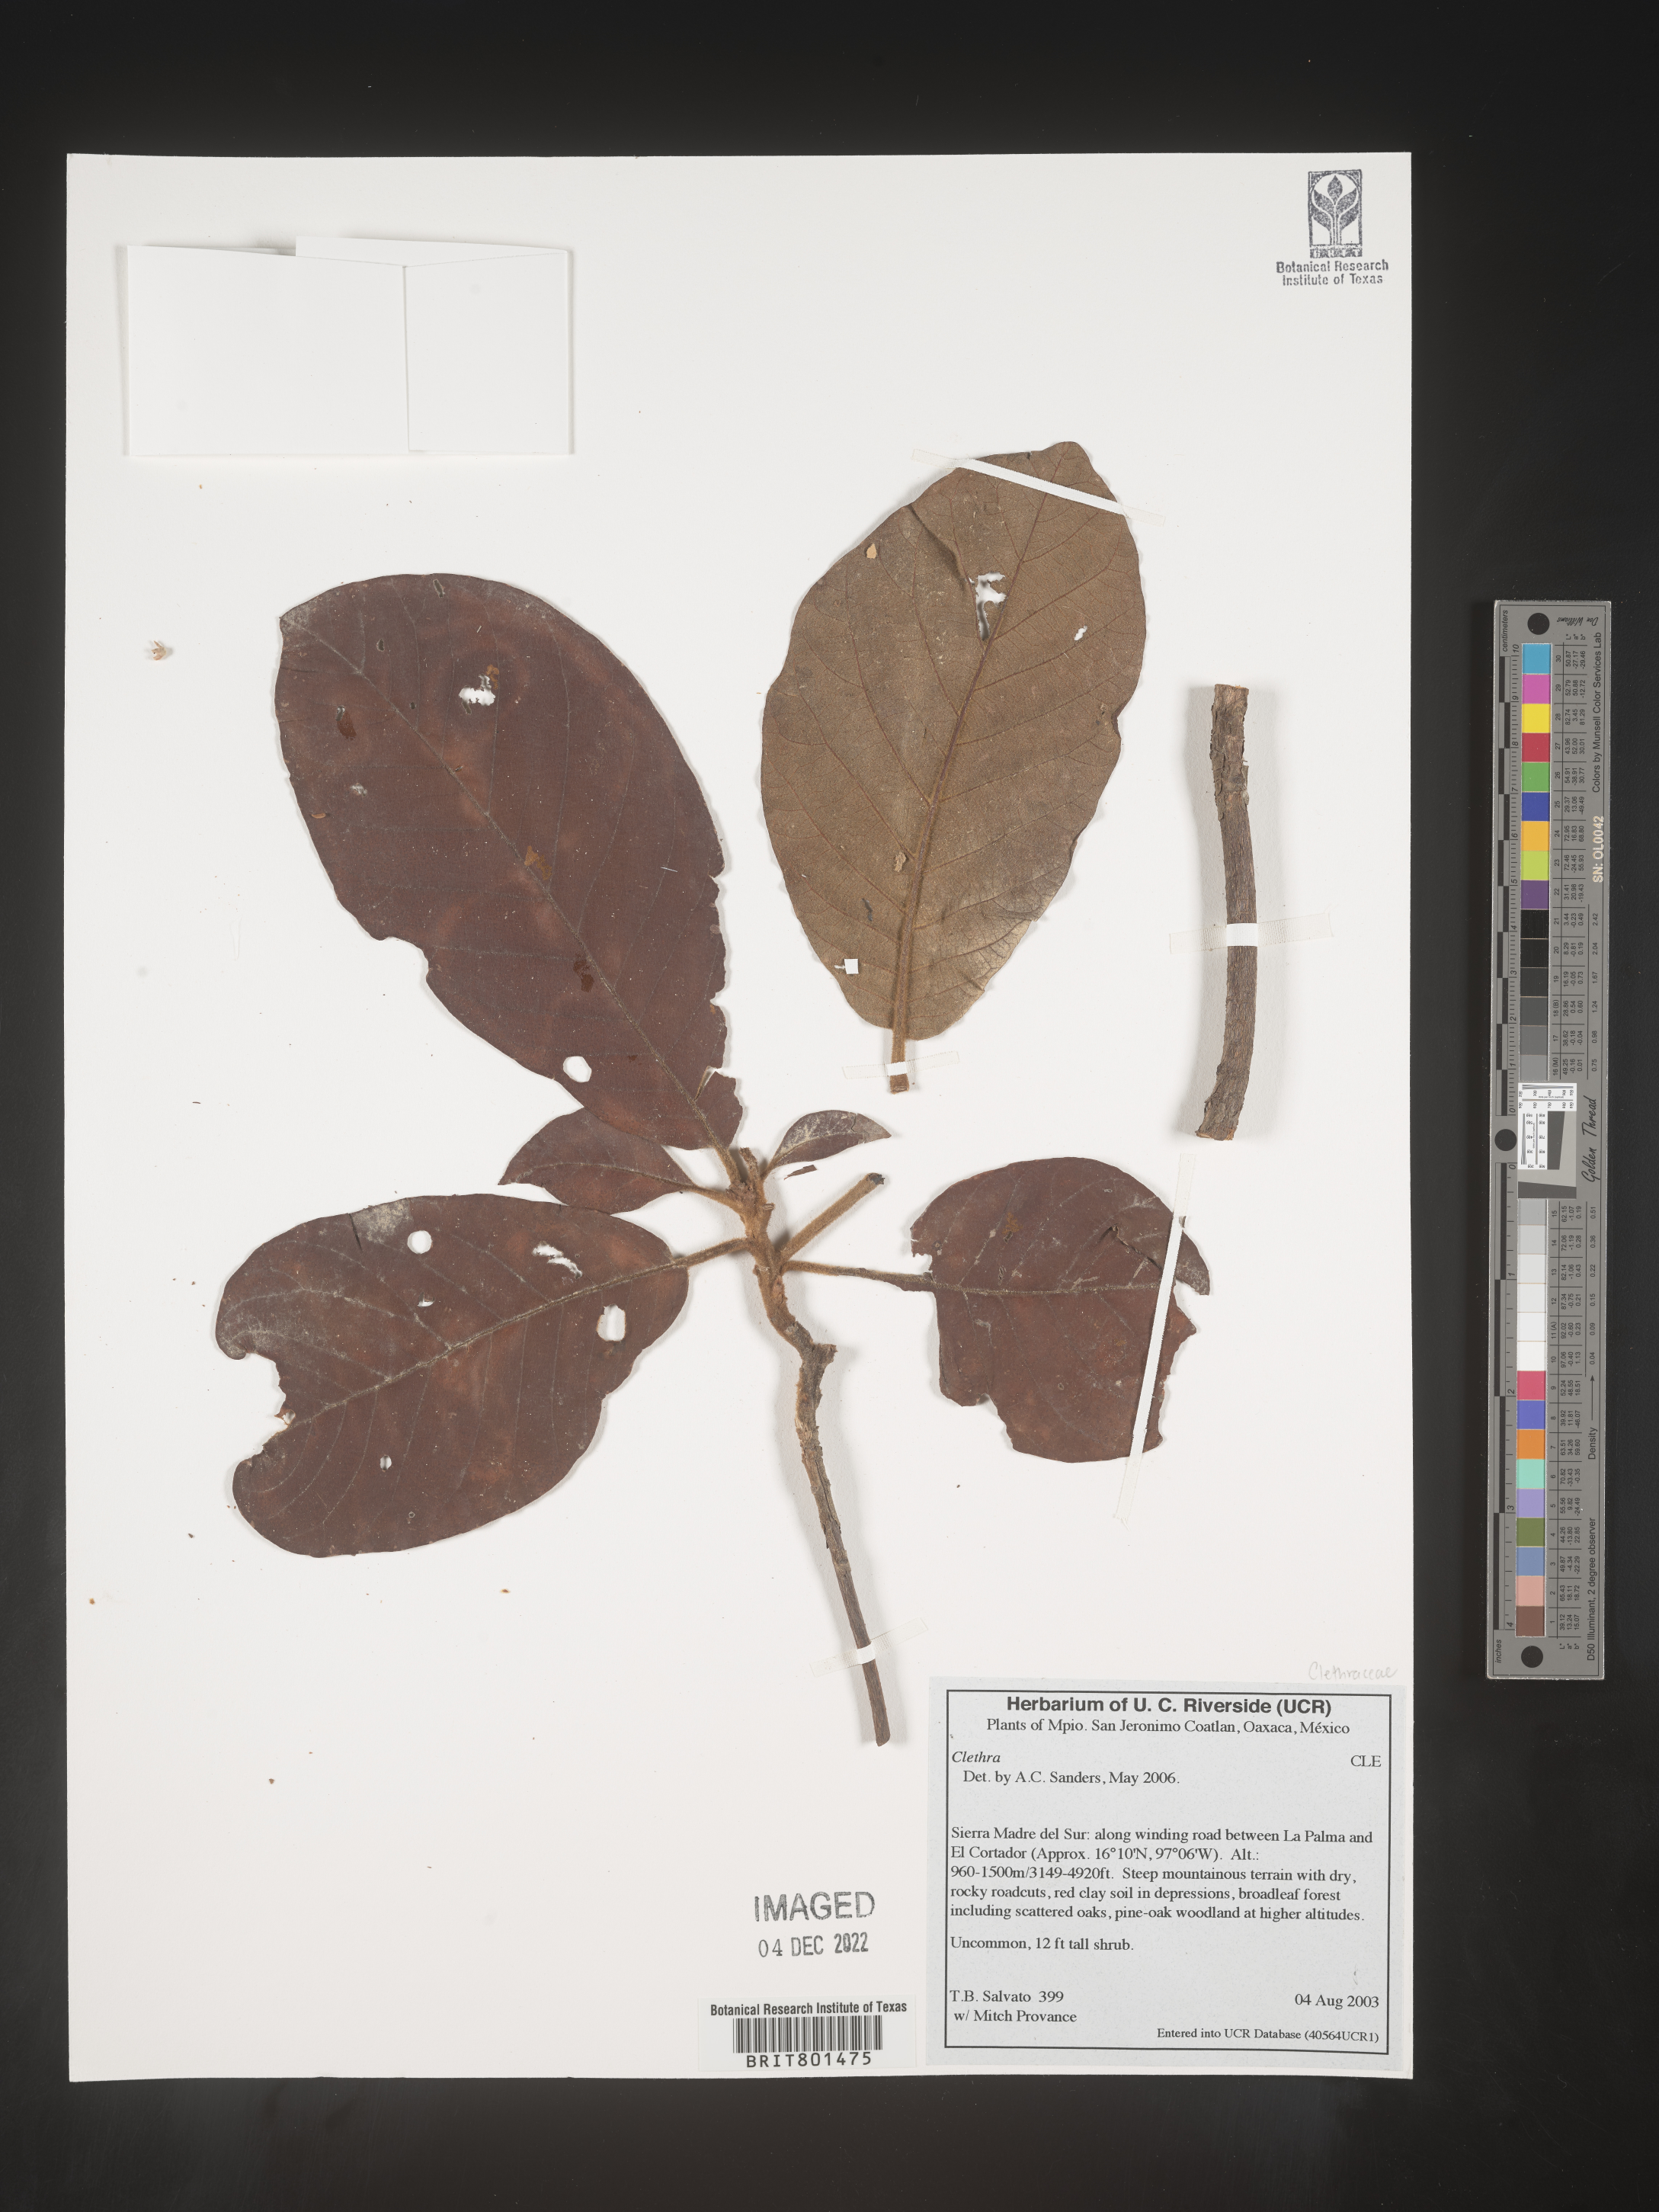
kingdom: Plantae
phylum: Tracheophyta
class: Magnoliopsida
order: Ericales
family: Clethraceae
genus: Clethra
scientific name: Clethra
